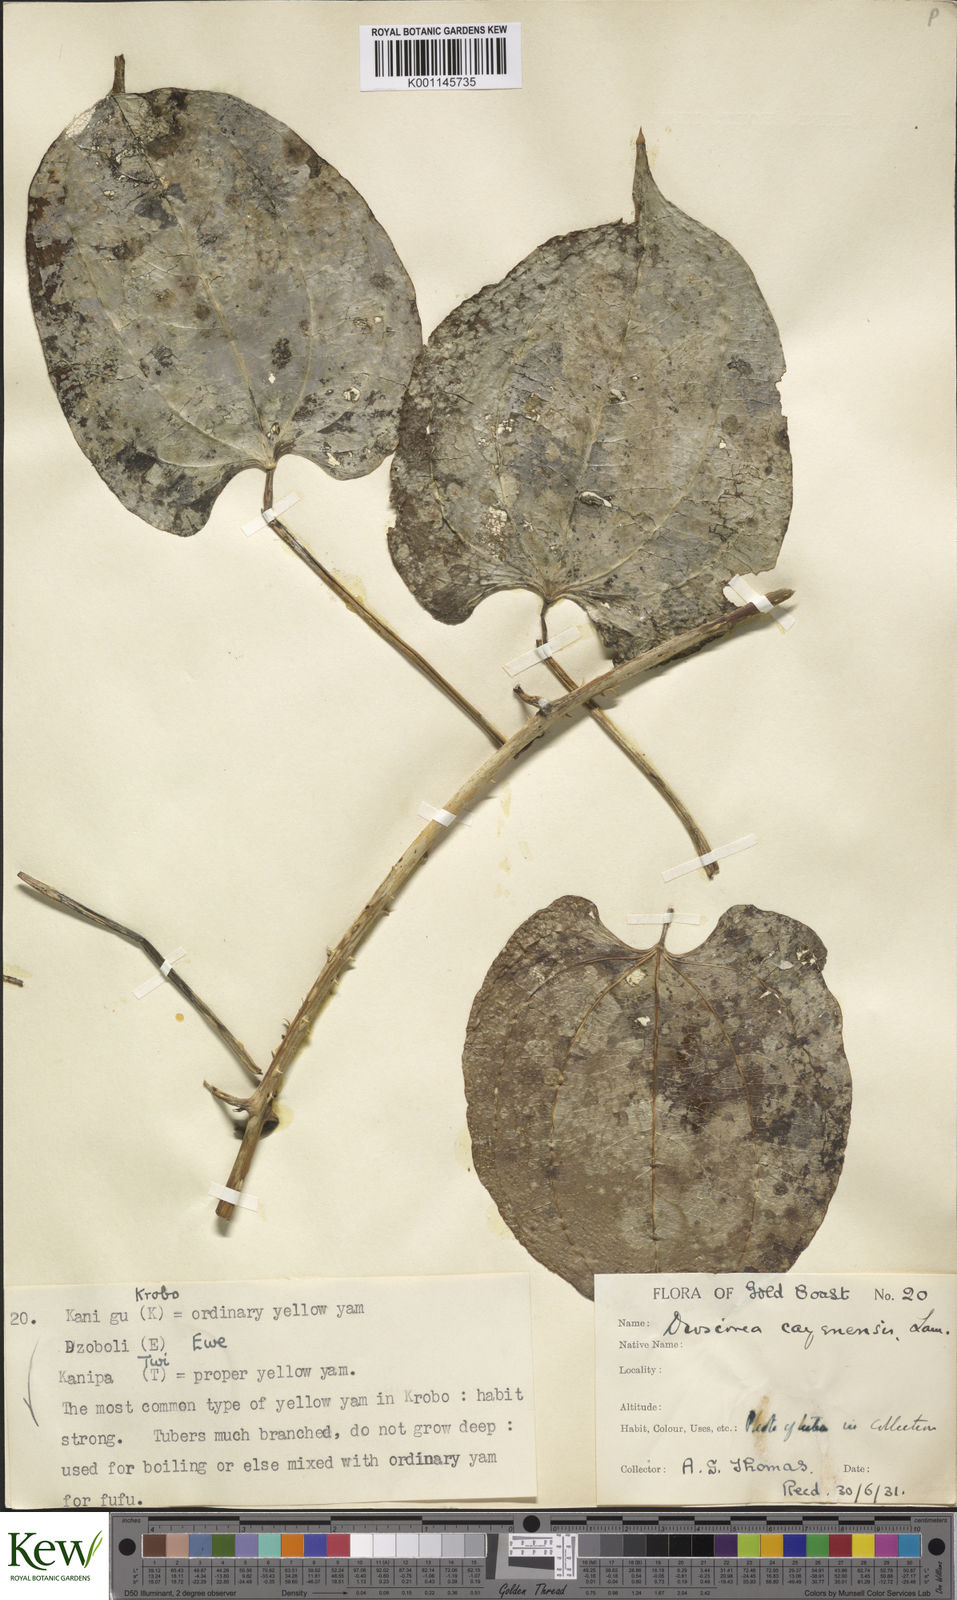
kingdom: Plantae
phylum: Tracheophyta
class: Liliopsida
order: Dioscoreales
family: Dioscoreaceae
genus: Dioscorea
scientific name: Dioscorea cayenensis
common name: Attoto yam
